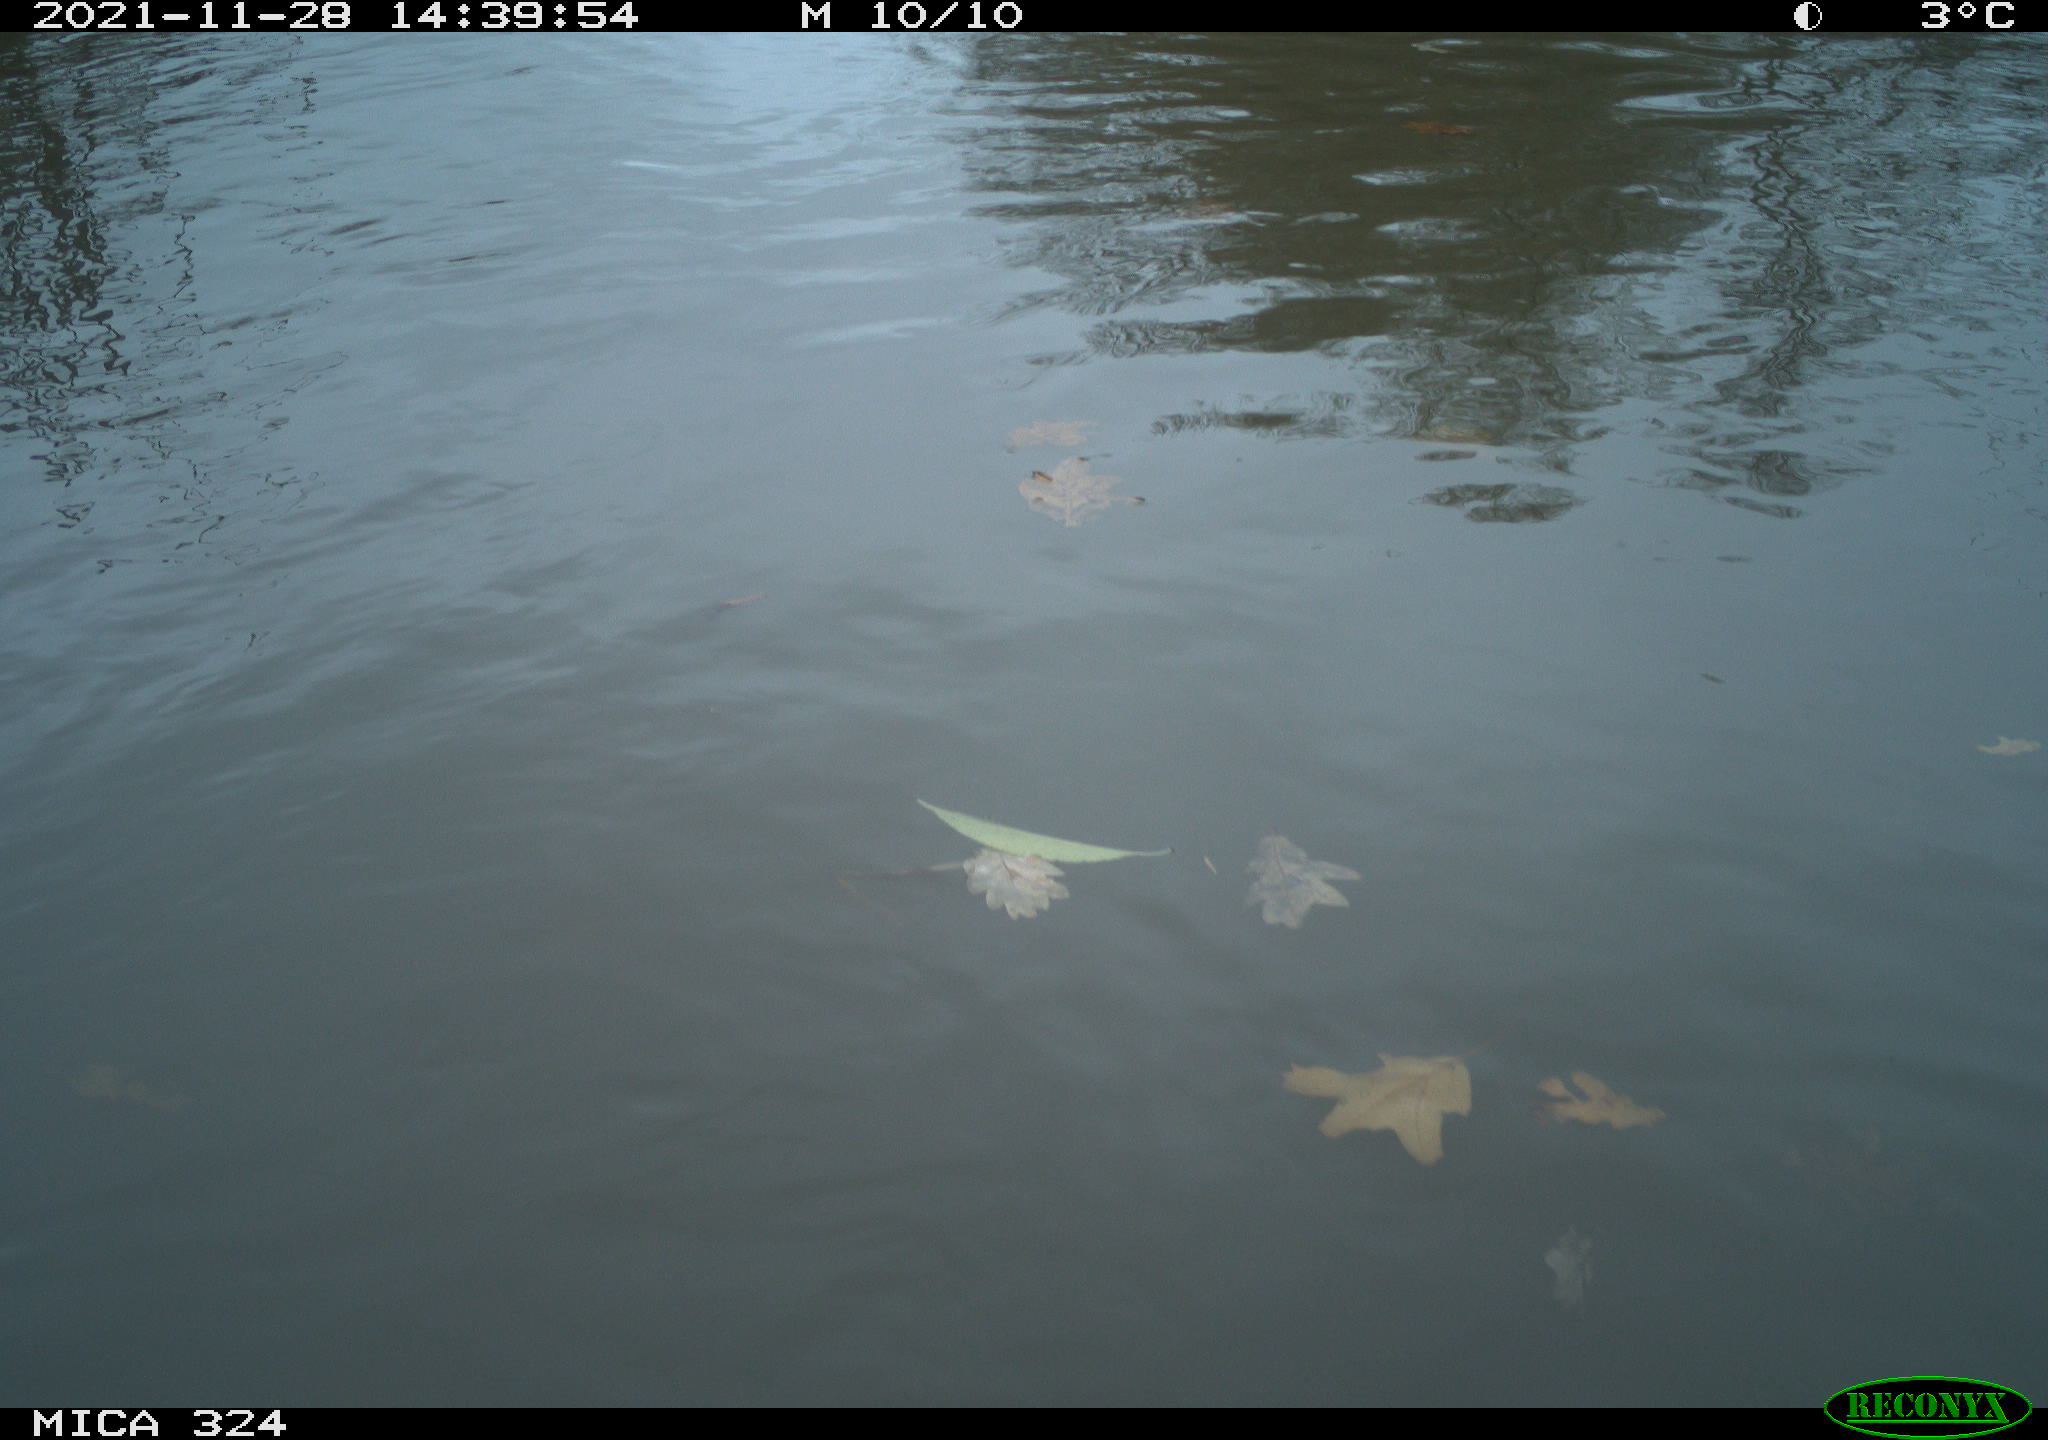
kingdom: Animalia
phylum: Chordata
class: Mammalia
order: Rodentia
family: Cricetidae
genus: Ondatra
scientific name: Ondatra zibethicus
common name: Muskrat
